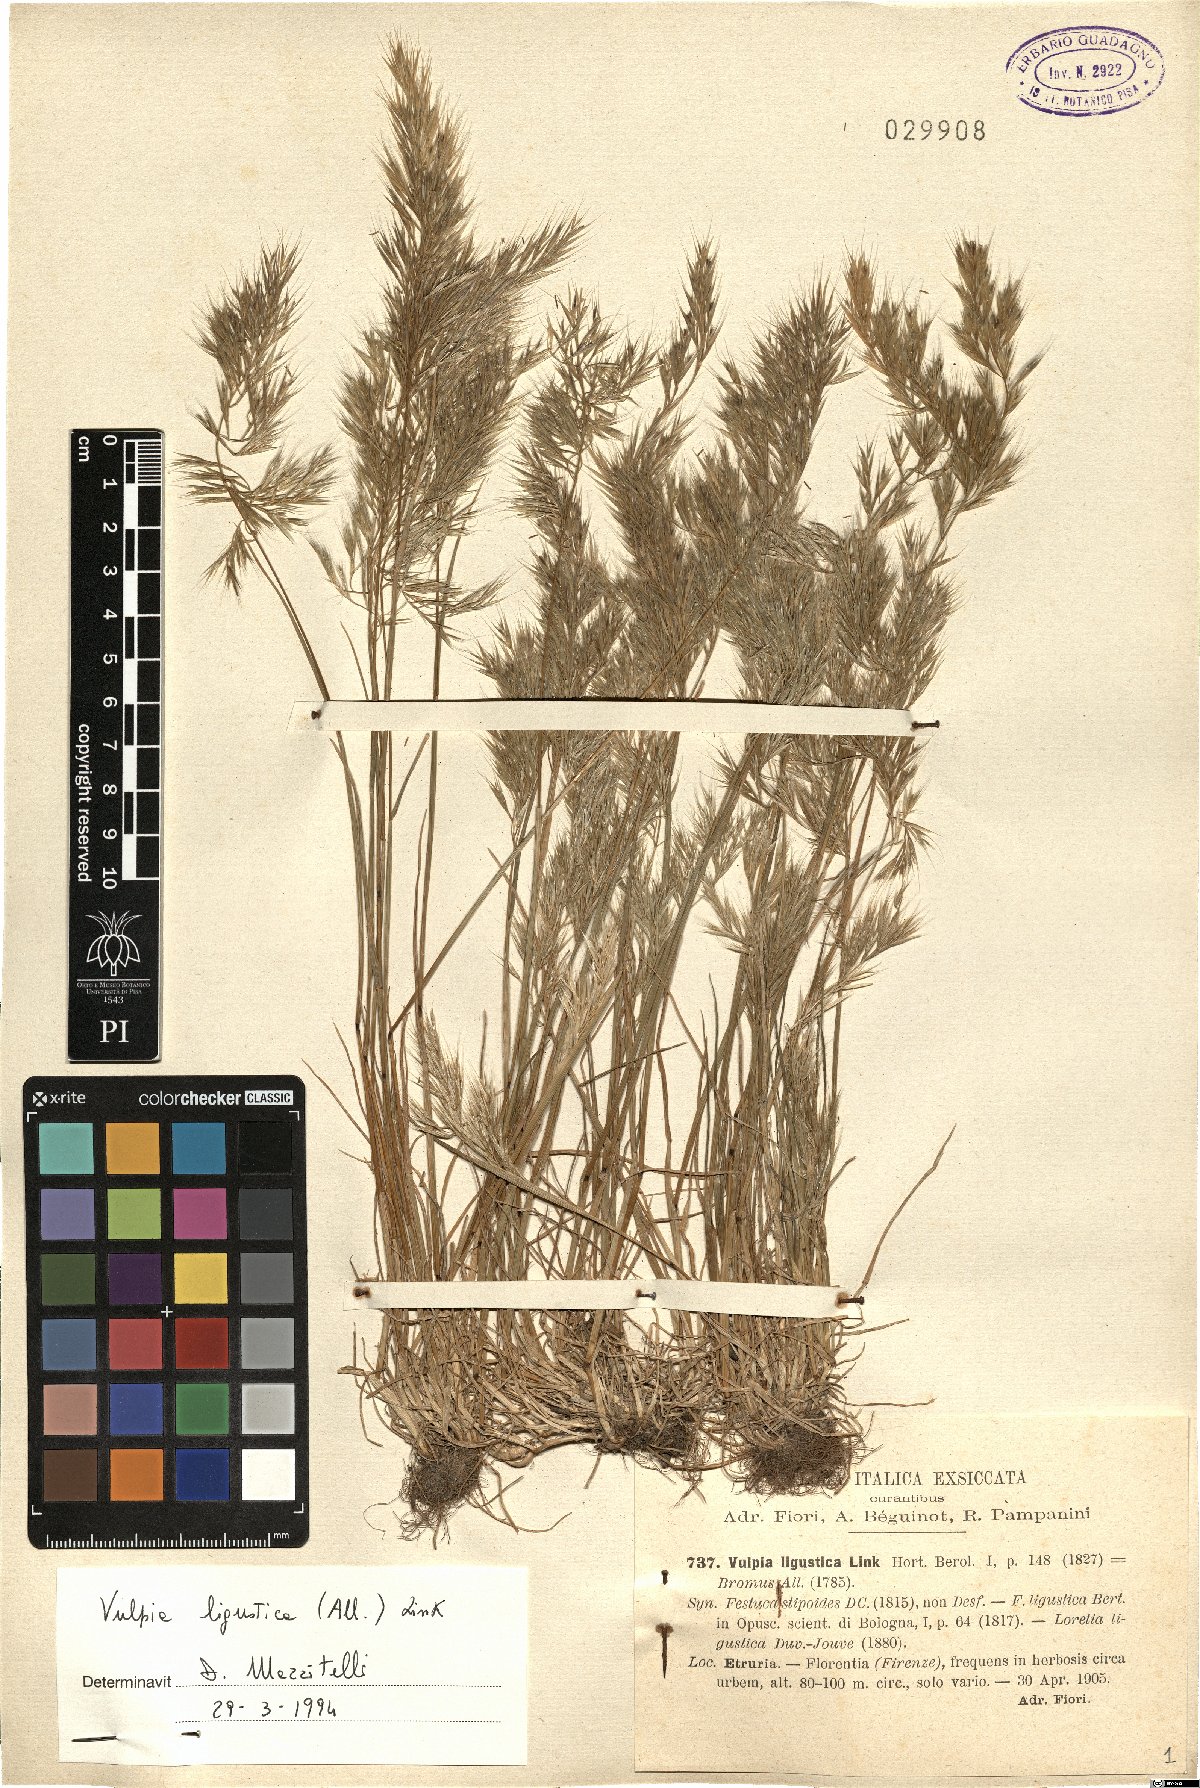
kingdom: Plantae
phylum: Tracheophyta
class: Liliopsida
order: Poales
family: Poaceae
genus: Festuca
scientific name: Festuca ligustica
